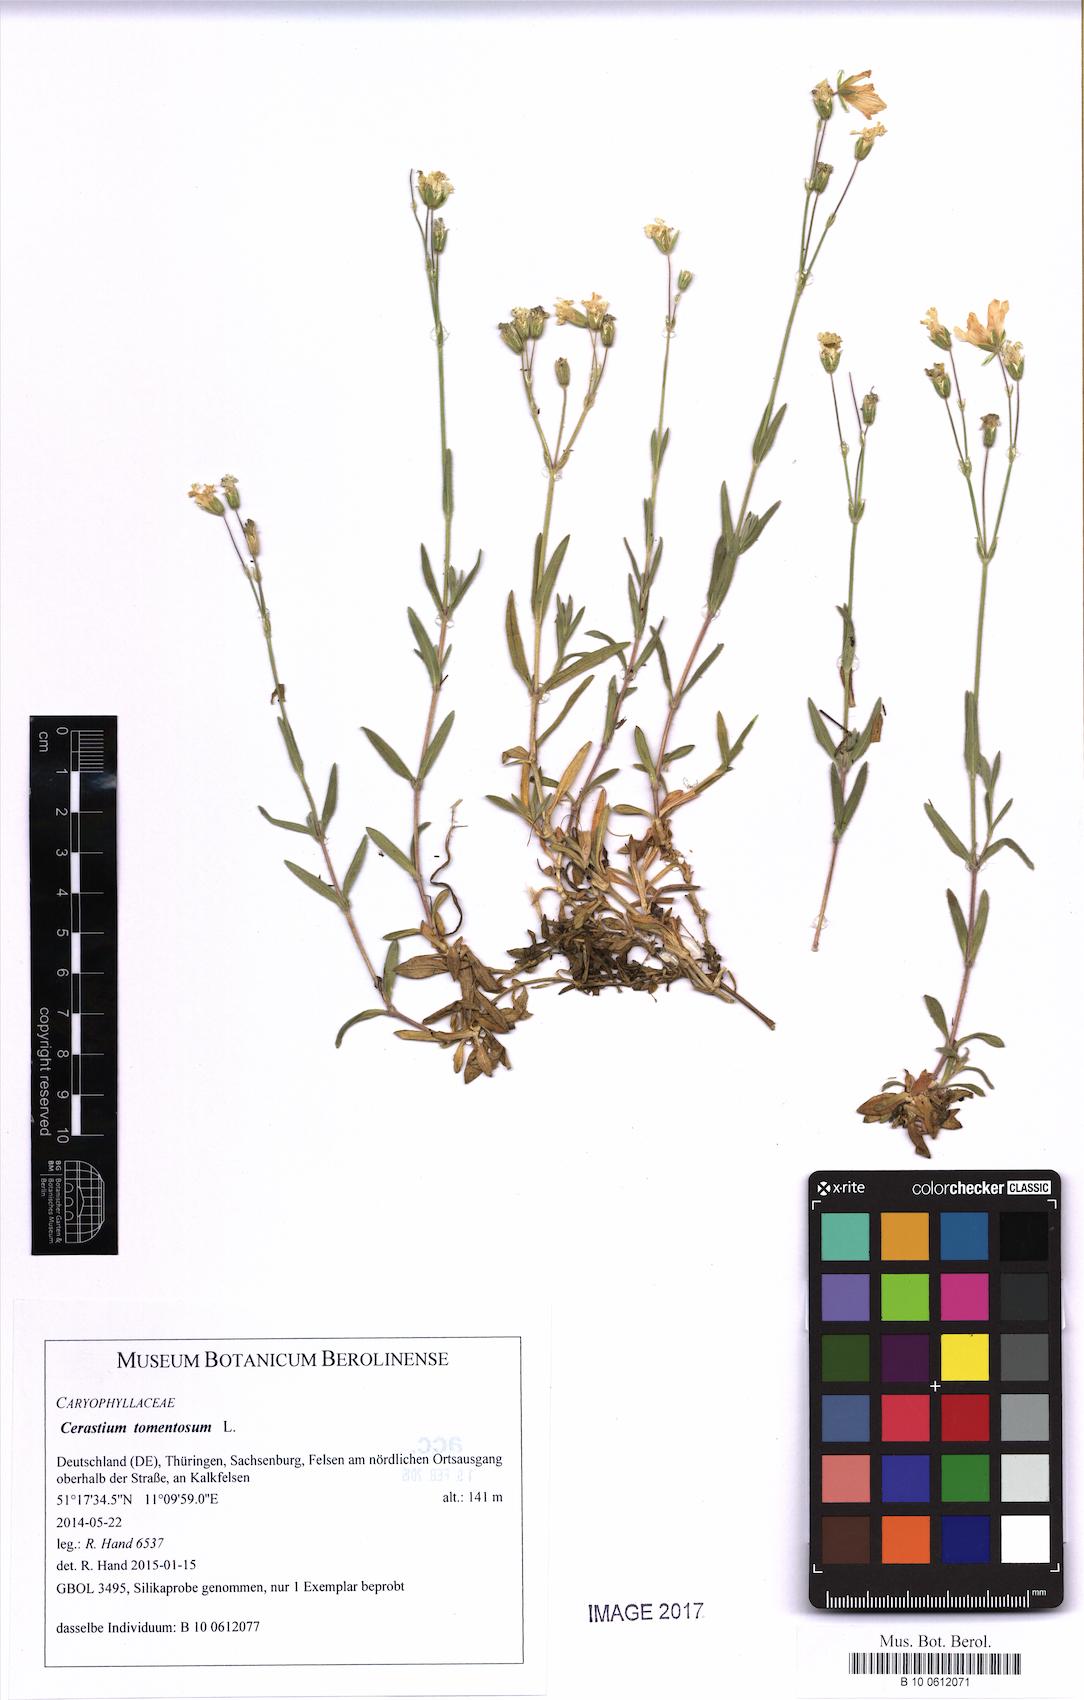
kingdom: Plantae
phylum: Tracheophyta
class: Magnoliopsida
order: Caryophyllales
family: Caryophyllaceae
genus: Cerastium
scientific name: Cerastium tomentosum
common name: Snow-in-summer
